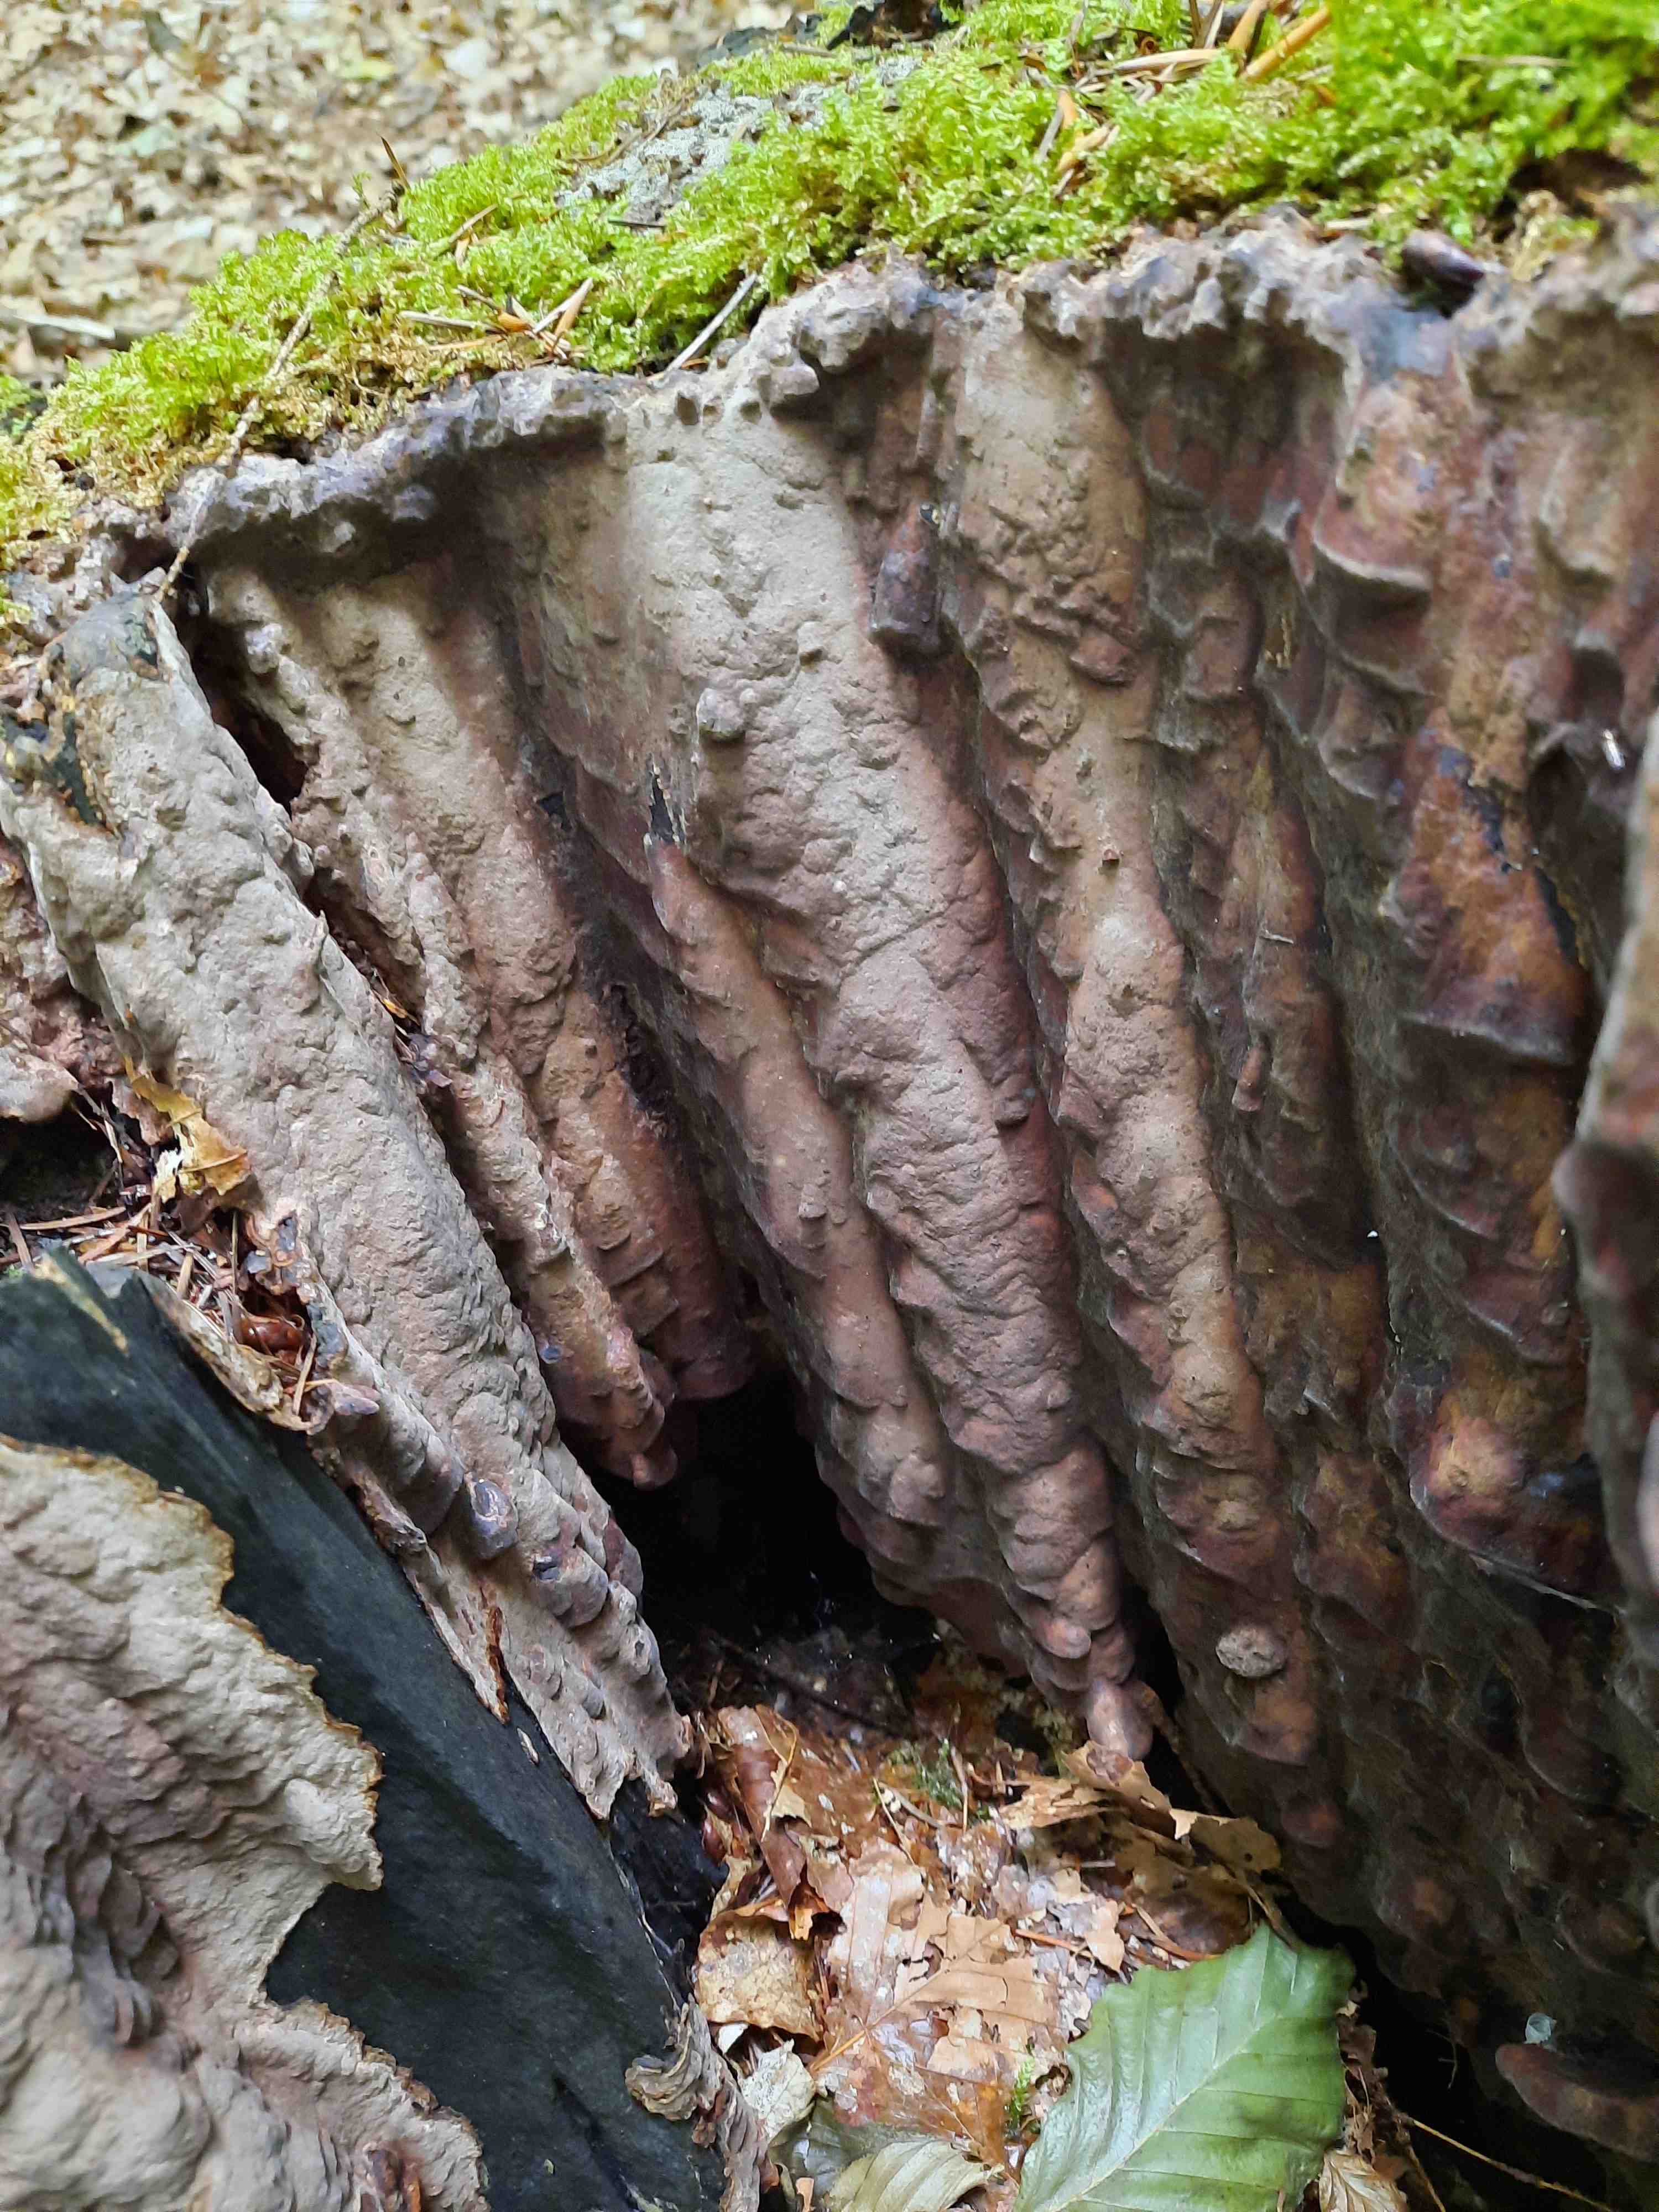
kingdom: Fungi
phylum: Basidiomycota
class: Agaricomycetes
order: Hymenochaetales
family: Hymenochaetaceae
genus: Phellinus
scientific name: Phellinus laevigatus
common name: glat ildporesvamp
